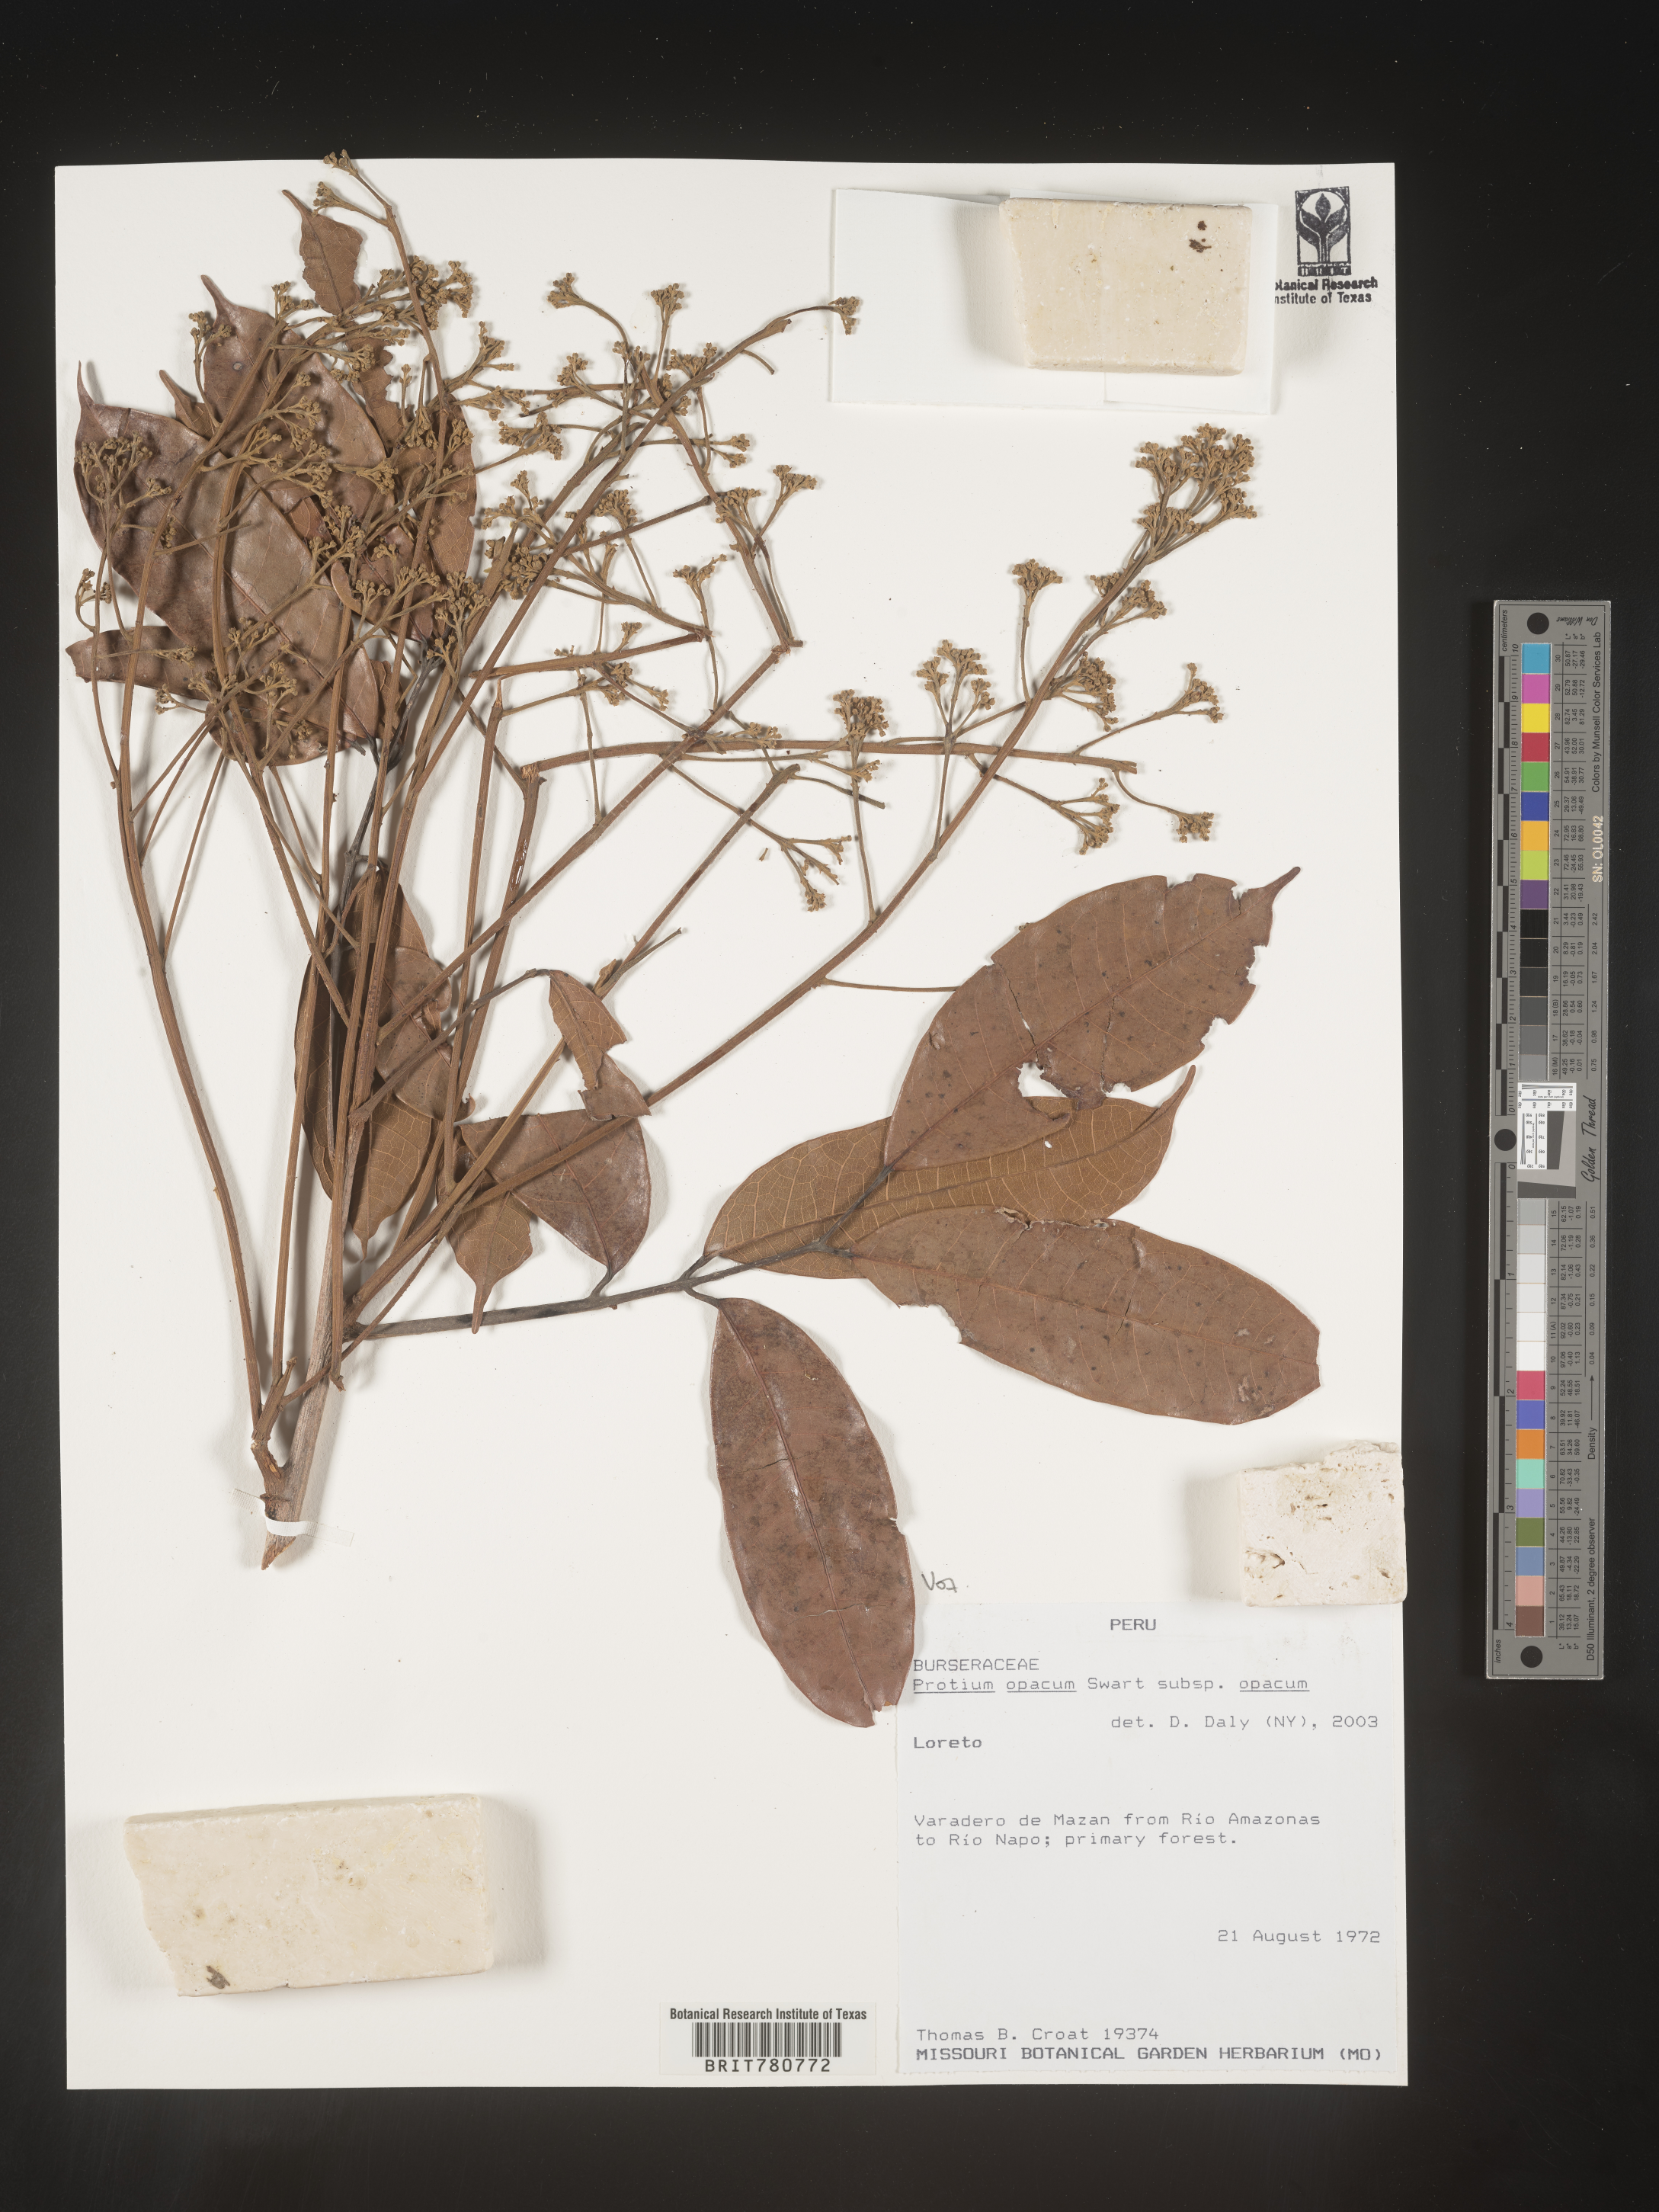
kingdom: Plantae
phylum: Tracheophyta
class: Magnoliopsida
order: Sapindales
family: Burseraceae
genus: Protium
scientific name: Protium opacum
